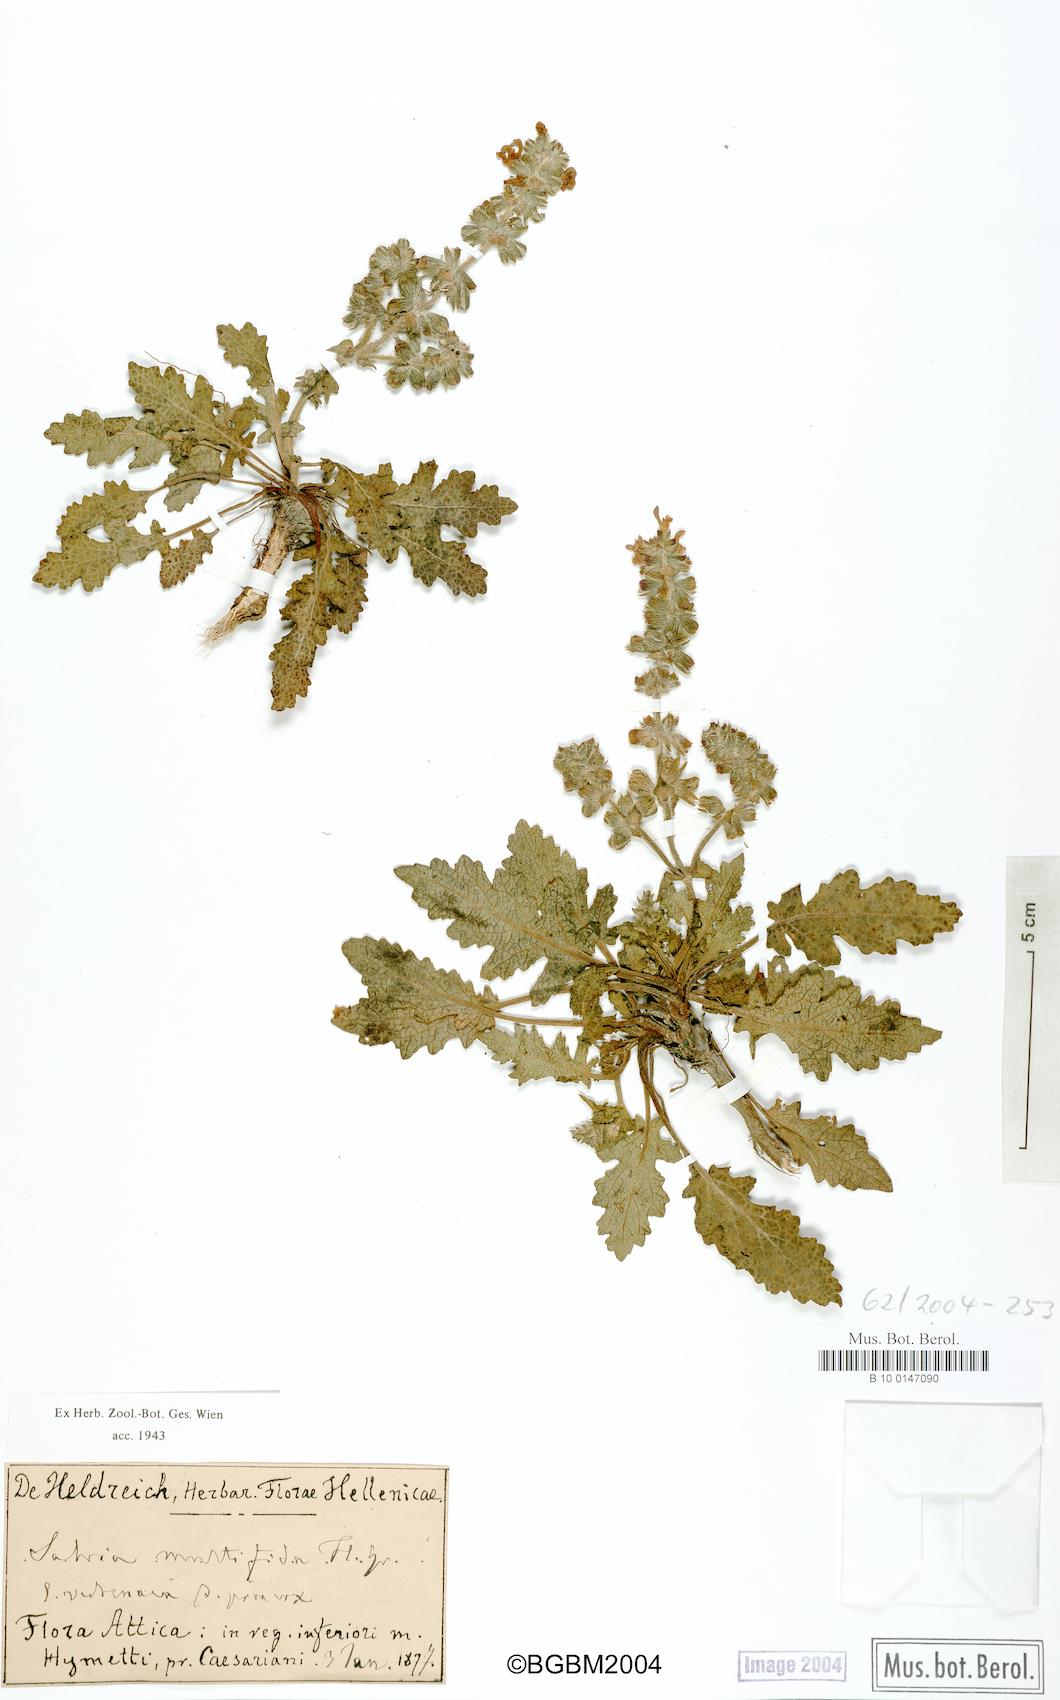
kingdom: Plantae
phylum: Tracheophyta
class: Magnoliopsida
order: Lamiales
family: Lamiaceae
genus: Salvia
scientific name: Salvia verbenaca
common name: Wild clary
